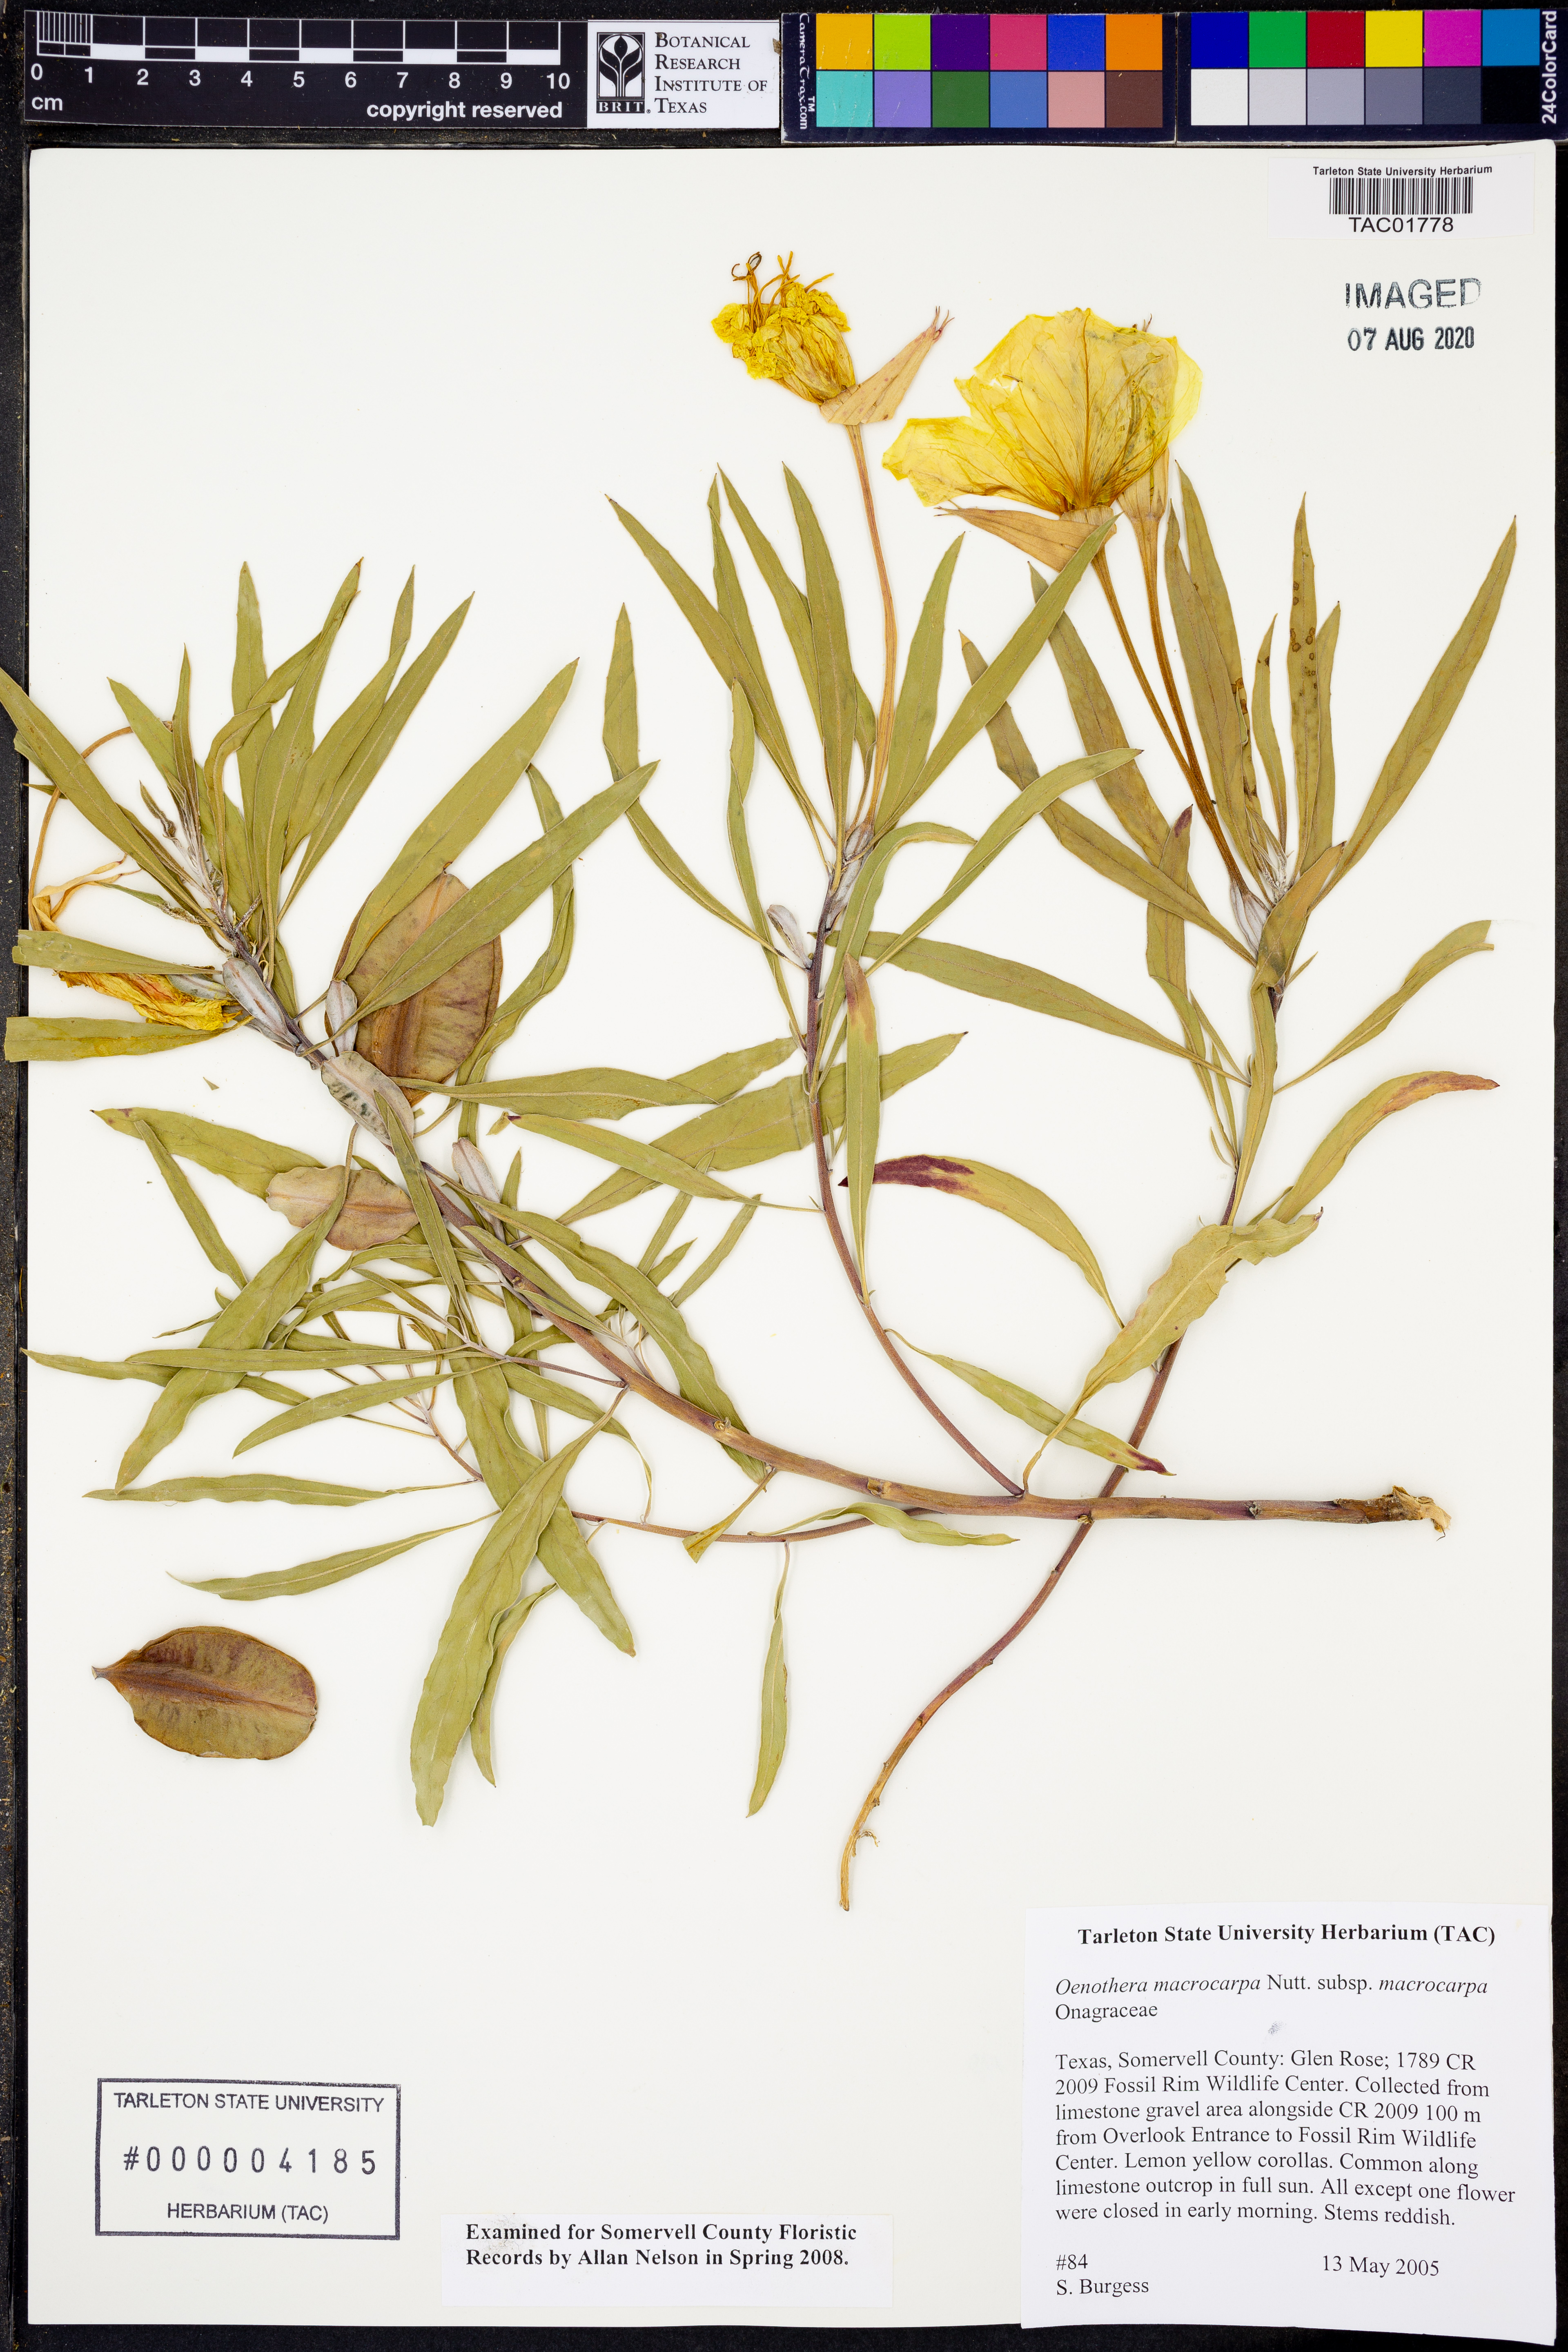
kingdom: Plantae
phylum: Tracheophyta
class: Magnoliopsida
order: Myrtales
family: Onagraceae
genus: Oenothera
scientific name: Oenothera macrocarpa
